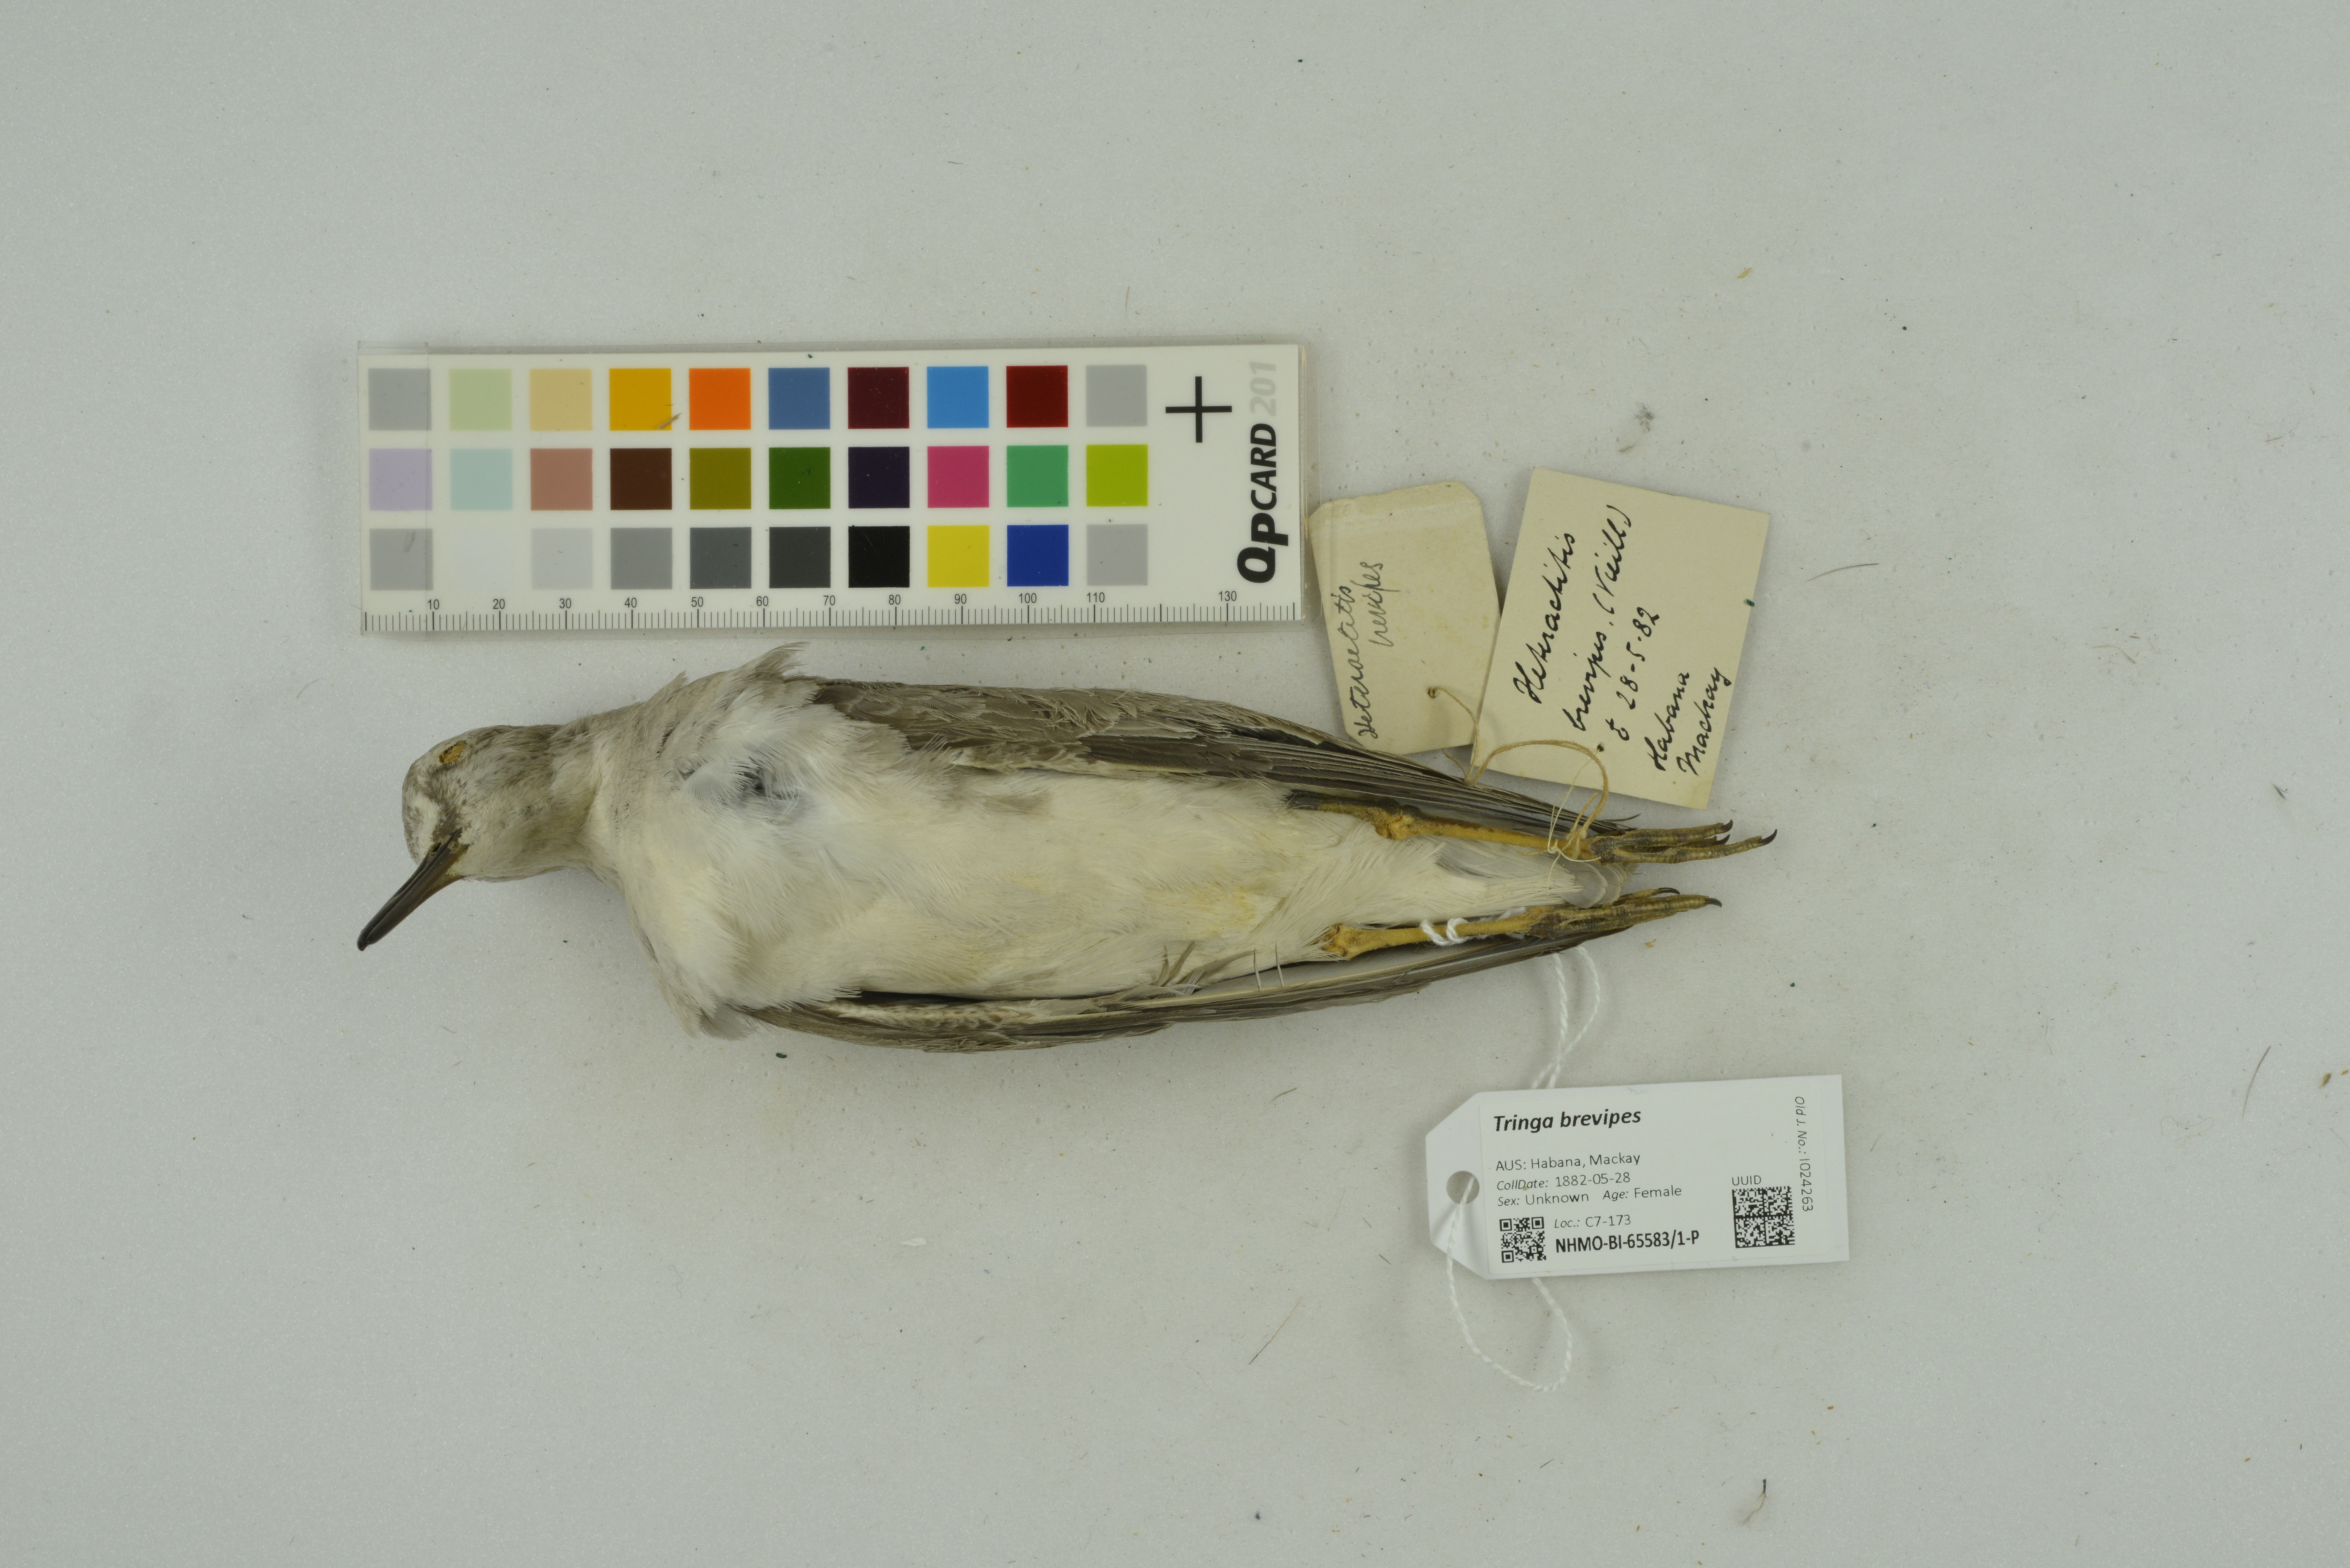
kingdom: Animalia
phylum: Chordata
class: Aves
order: Charadriiformes
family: Scolopacidae
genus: Tringa
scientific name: Tringa brevipes
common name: Grey-tailed tattler
